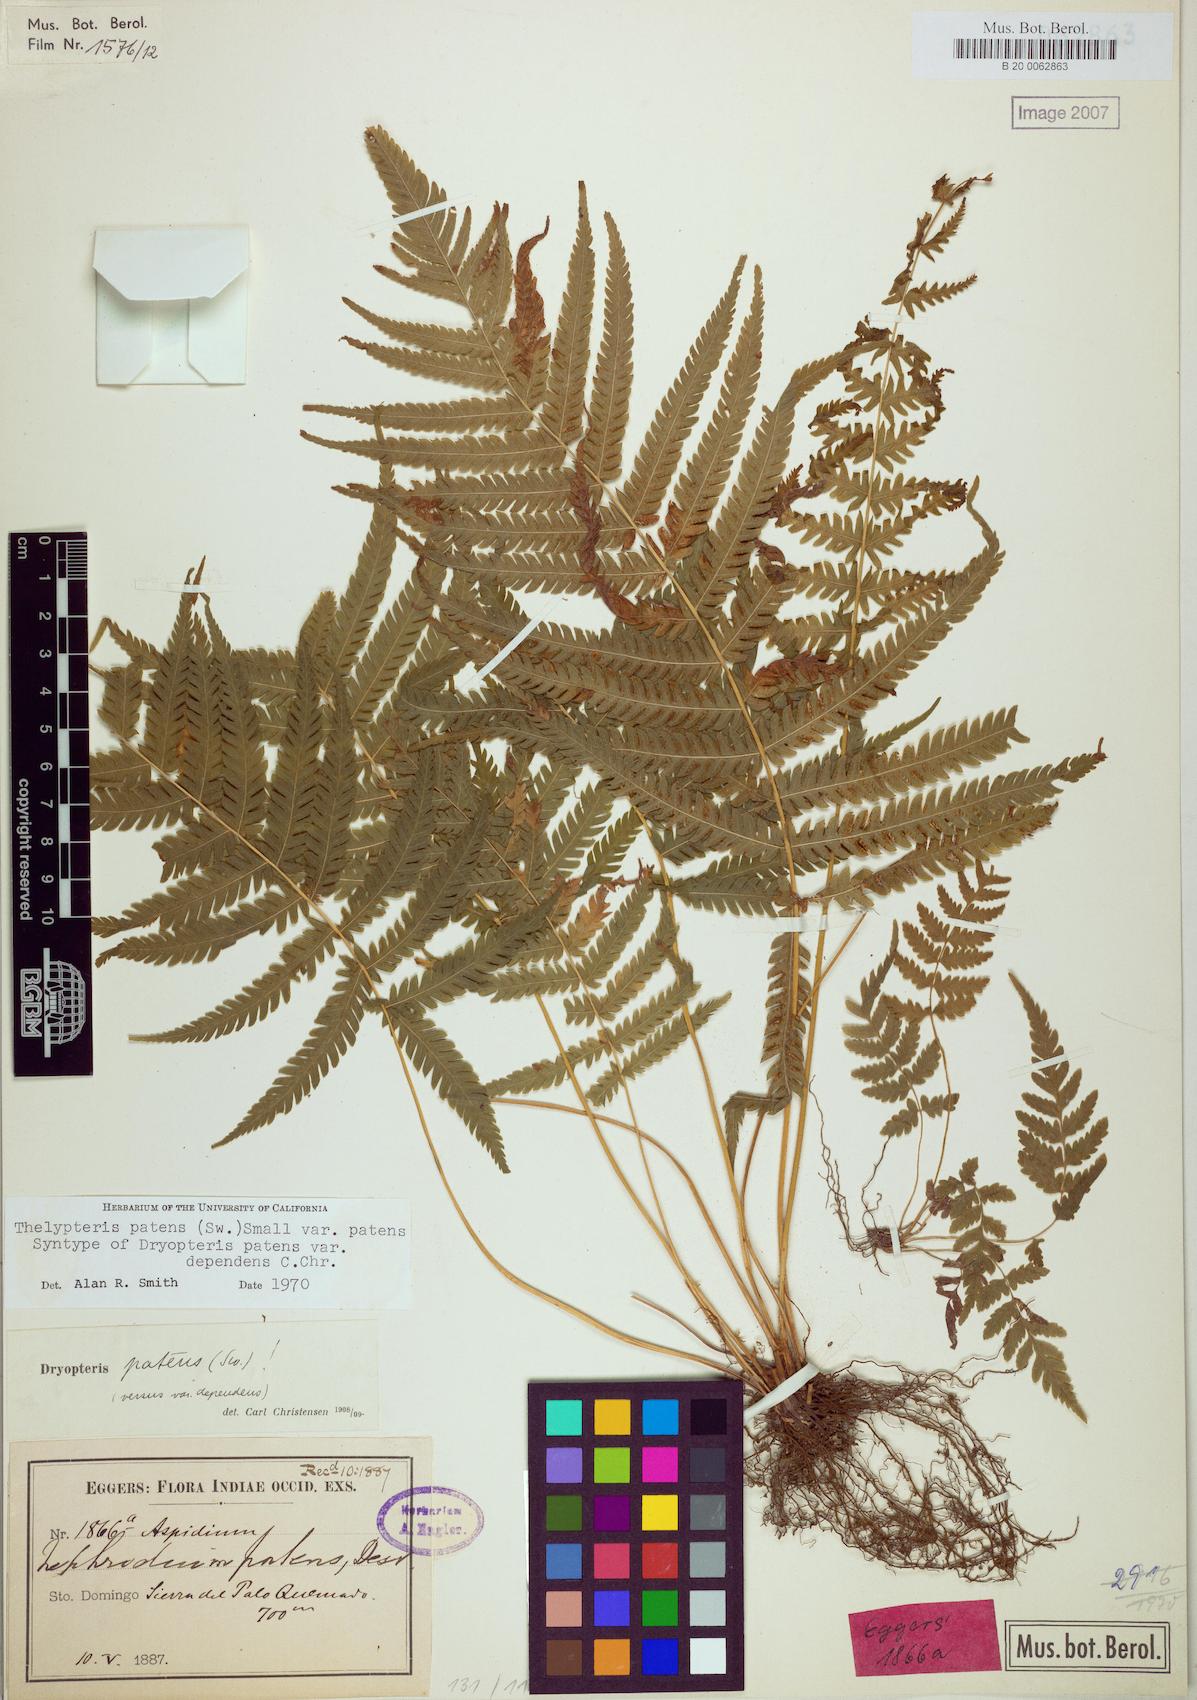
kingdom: Plantae
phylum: Tracheophyta
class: Polypodiopsida
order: Polypodiales
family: Thelypteridaceae
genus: Pelazoneuron
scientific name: Pelazoneuron patens
